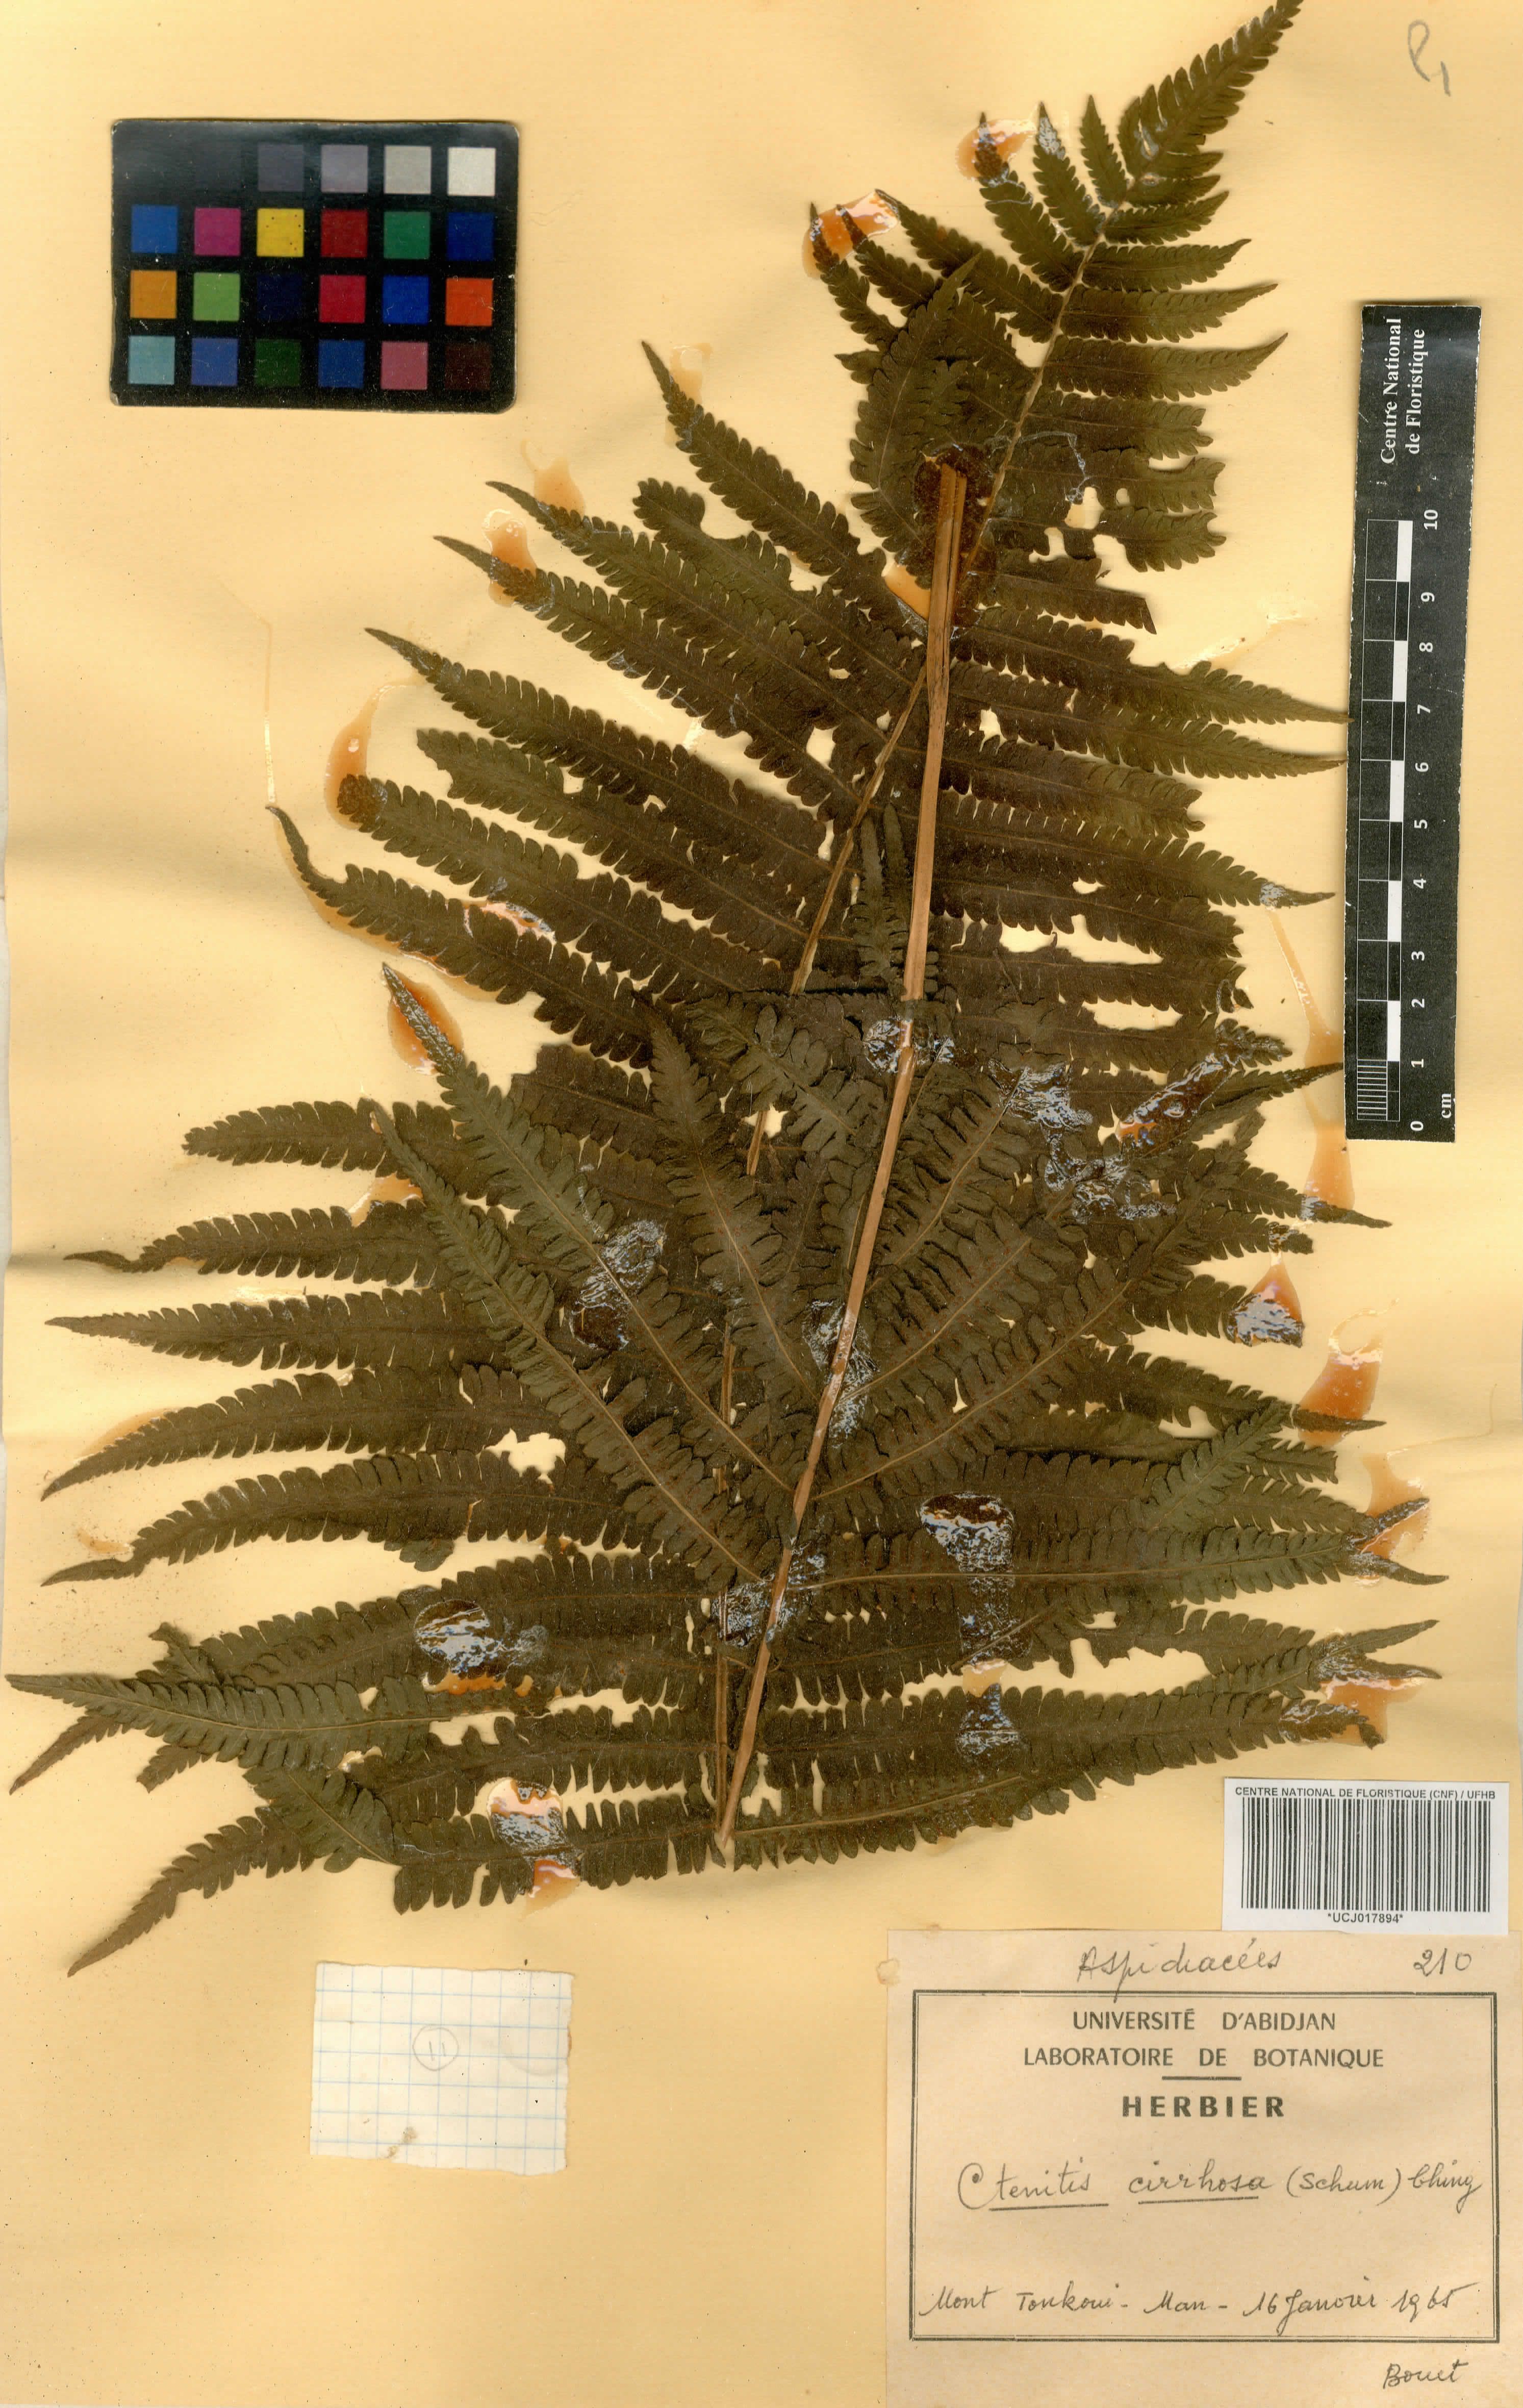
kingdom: Plantae
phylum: Tracheophyta
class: Polypodiopsida
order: Polypodiales
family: Dryopteridaceae
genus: Ctenitis
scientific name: Ctenitis cirrhosa
